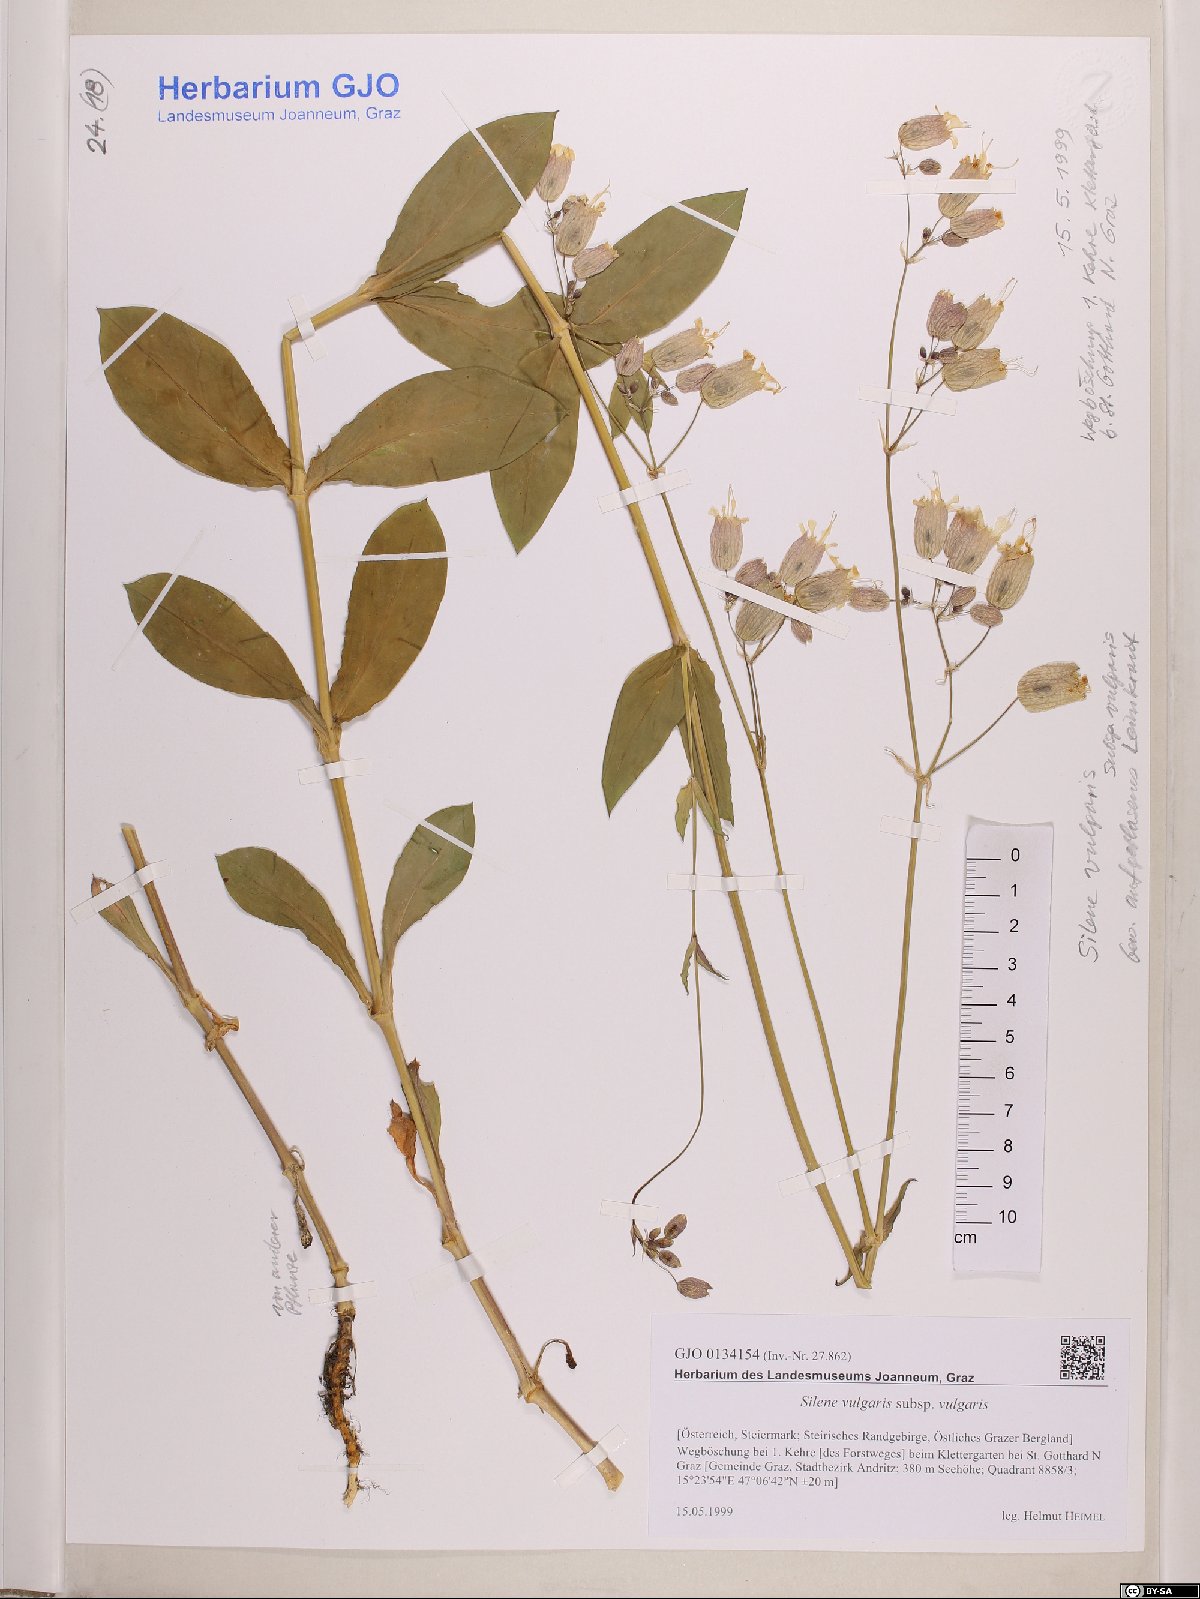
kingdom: Plantae
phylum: Tracheophyta
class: Magnoliopsida
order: Caryophyllales
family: Caryophyllaceae
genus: Silene
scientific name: Silene vulgaris
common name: Bladder campion
